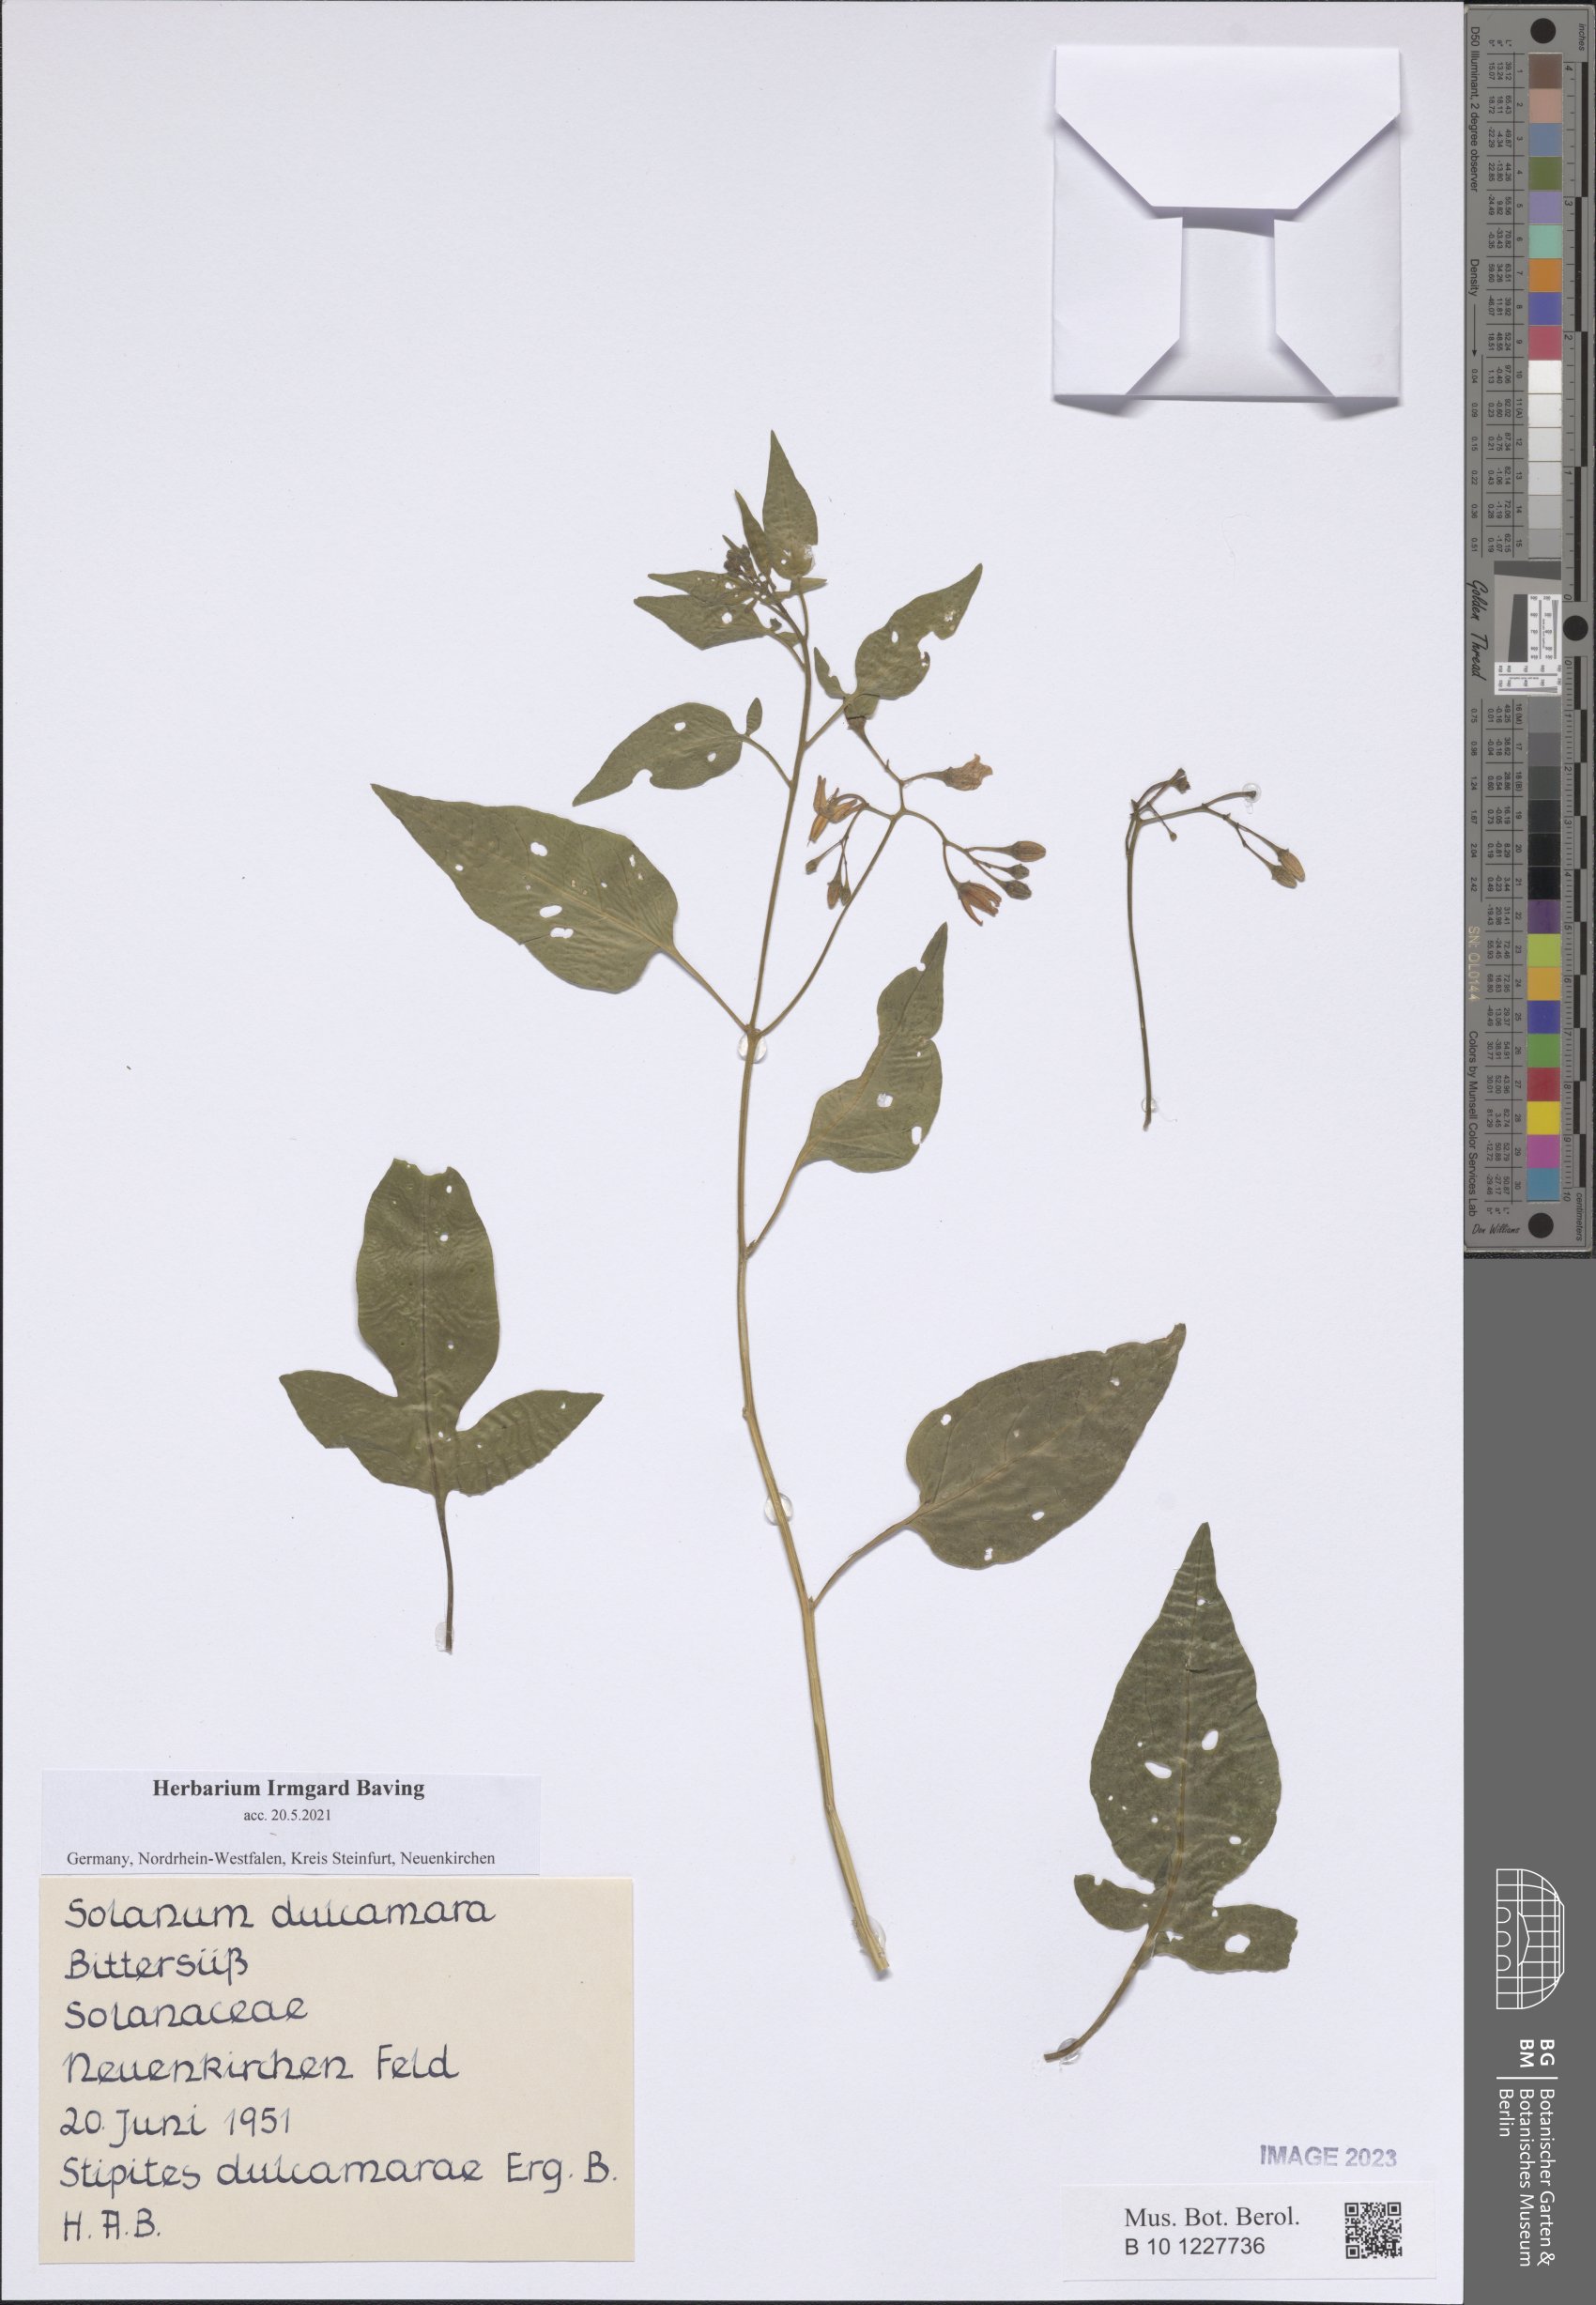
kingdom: Plantae
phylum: Tracheophyta
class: Magnoliopsida
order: Solanales
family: Solanaceae
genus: Solanum
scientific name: Solanum dulcamara
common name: Climbing nightshade
